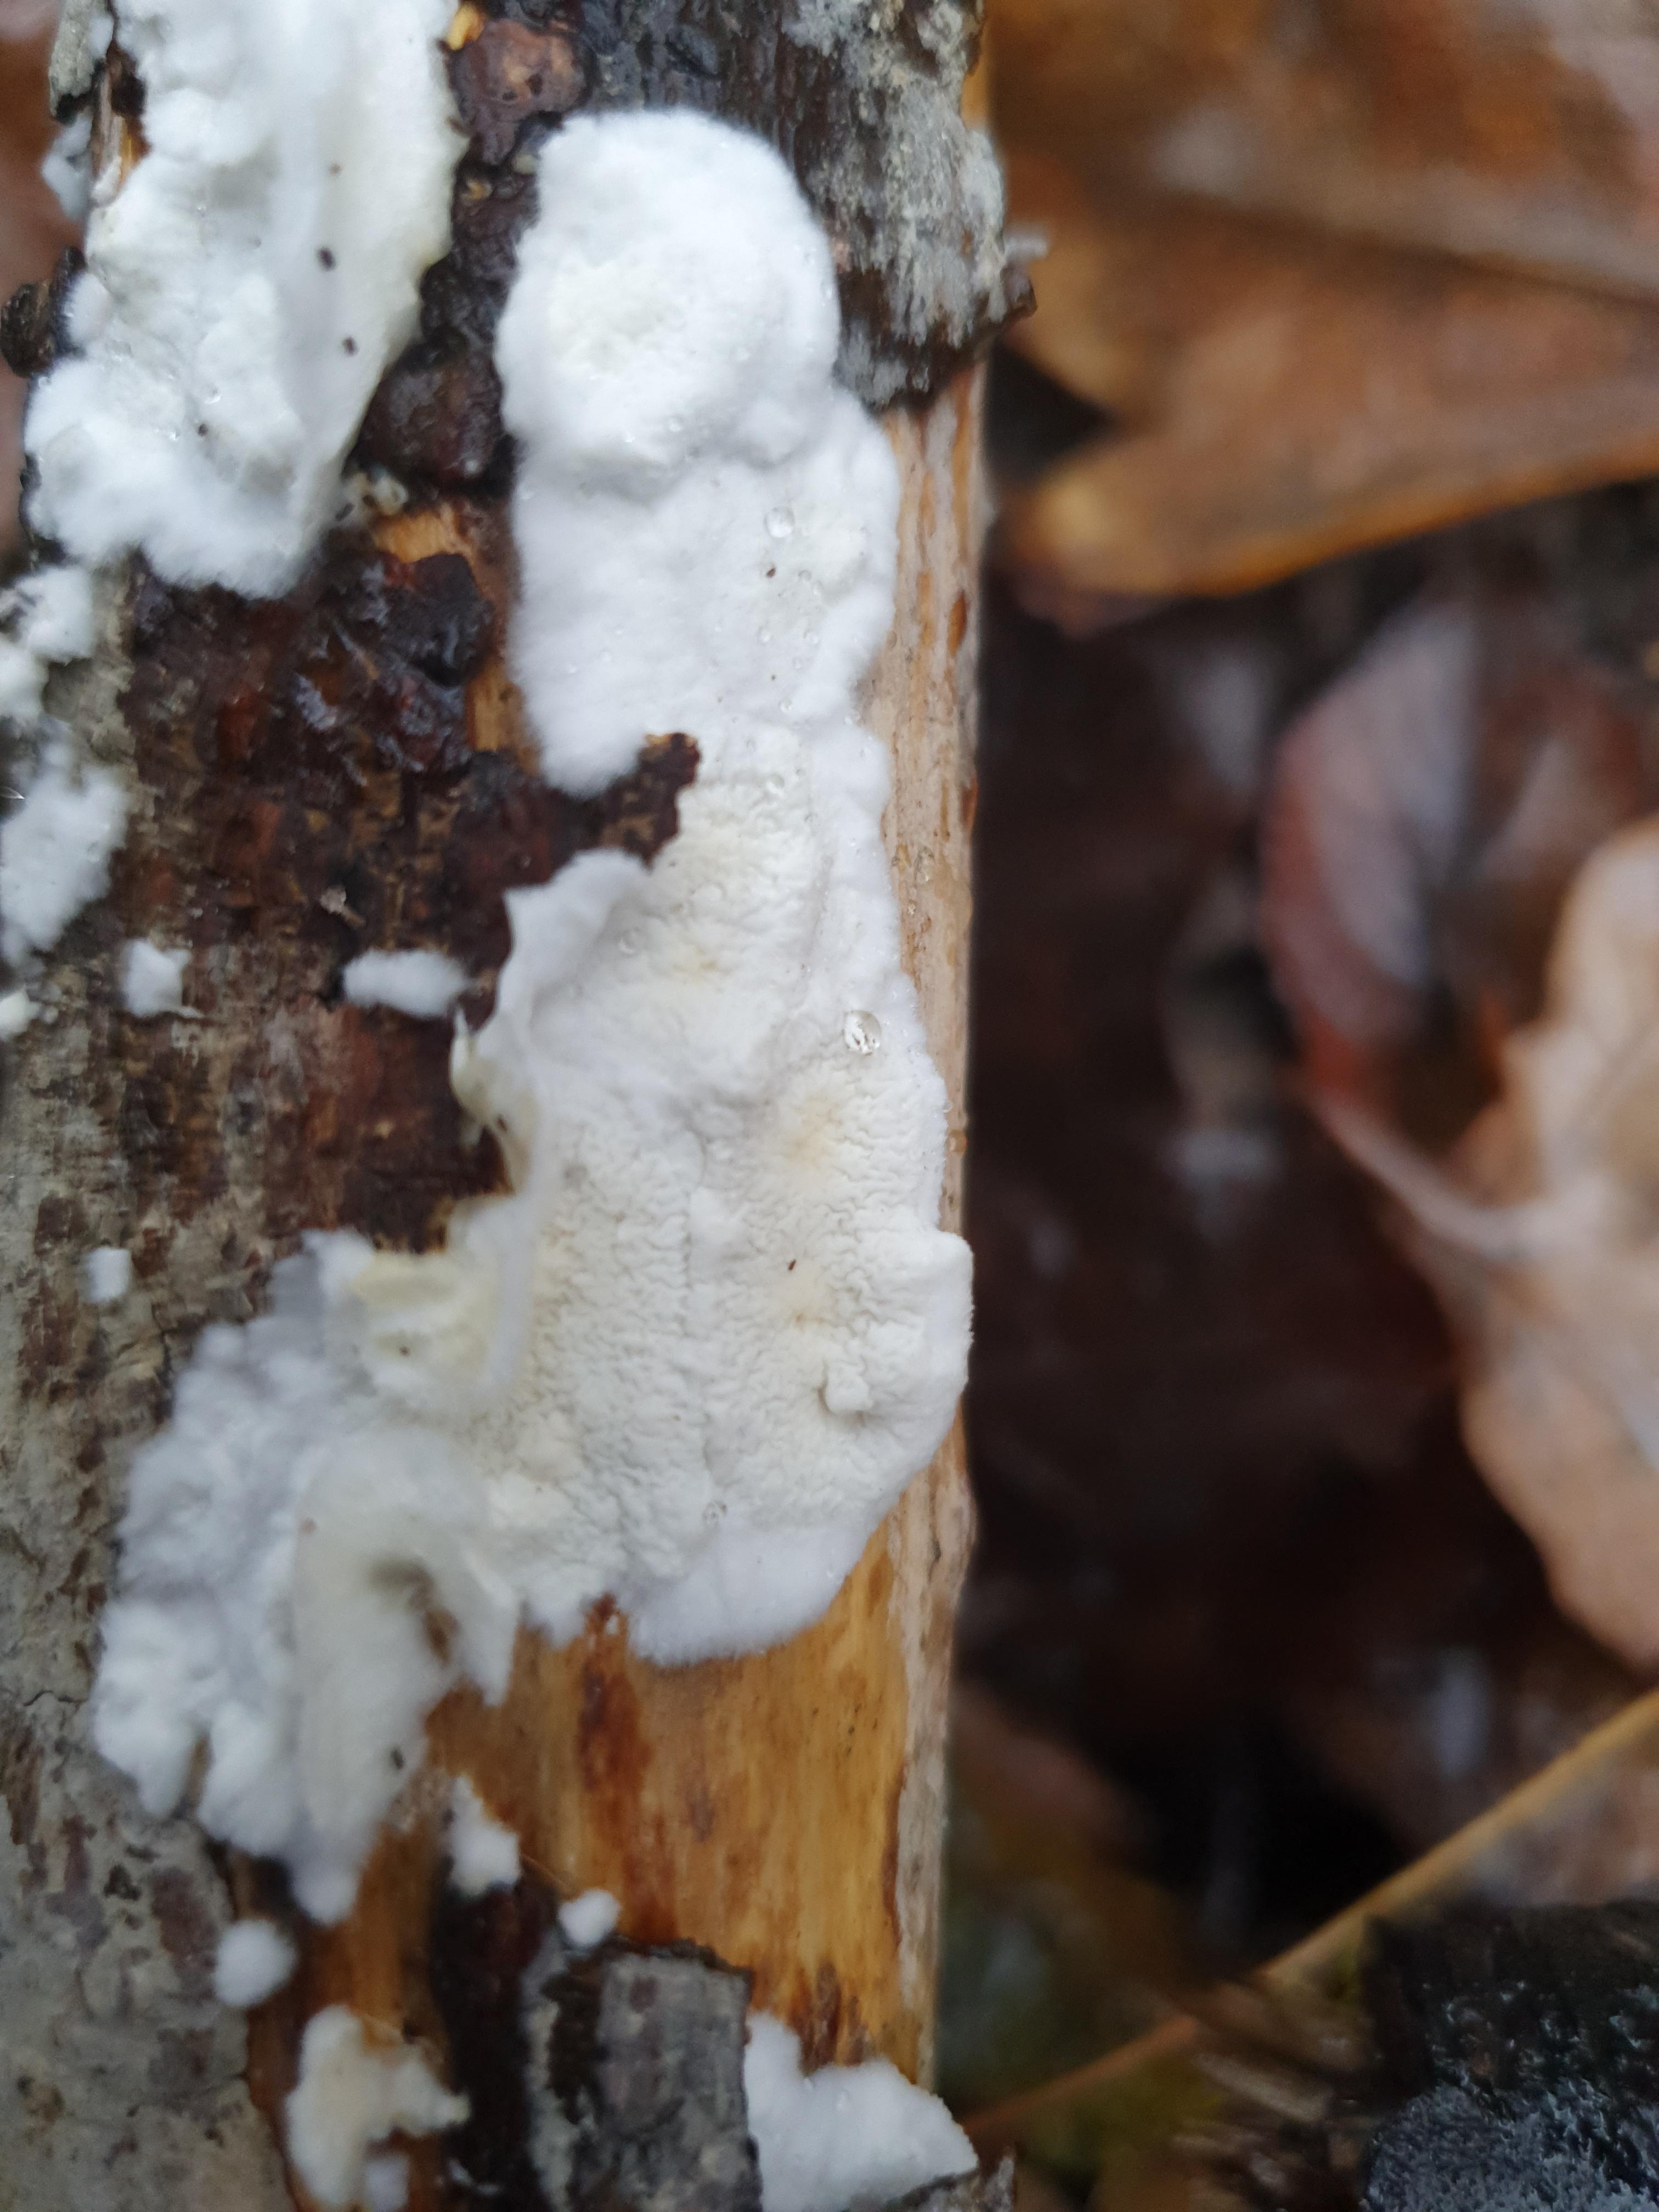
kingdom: Fungi
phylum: Basidiomycota
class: Agaricomycetes
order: Polyporales
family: Irpicaceae
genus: Byssomerulius
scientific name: Byssomerulius corium
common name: læder-åresvamp
